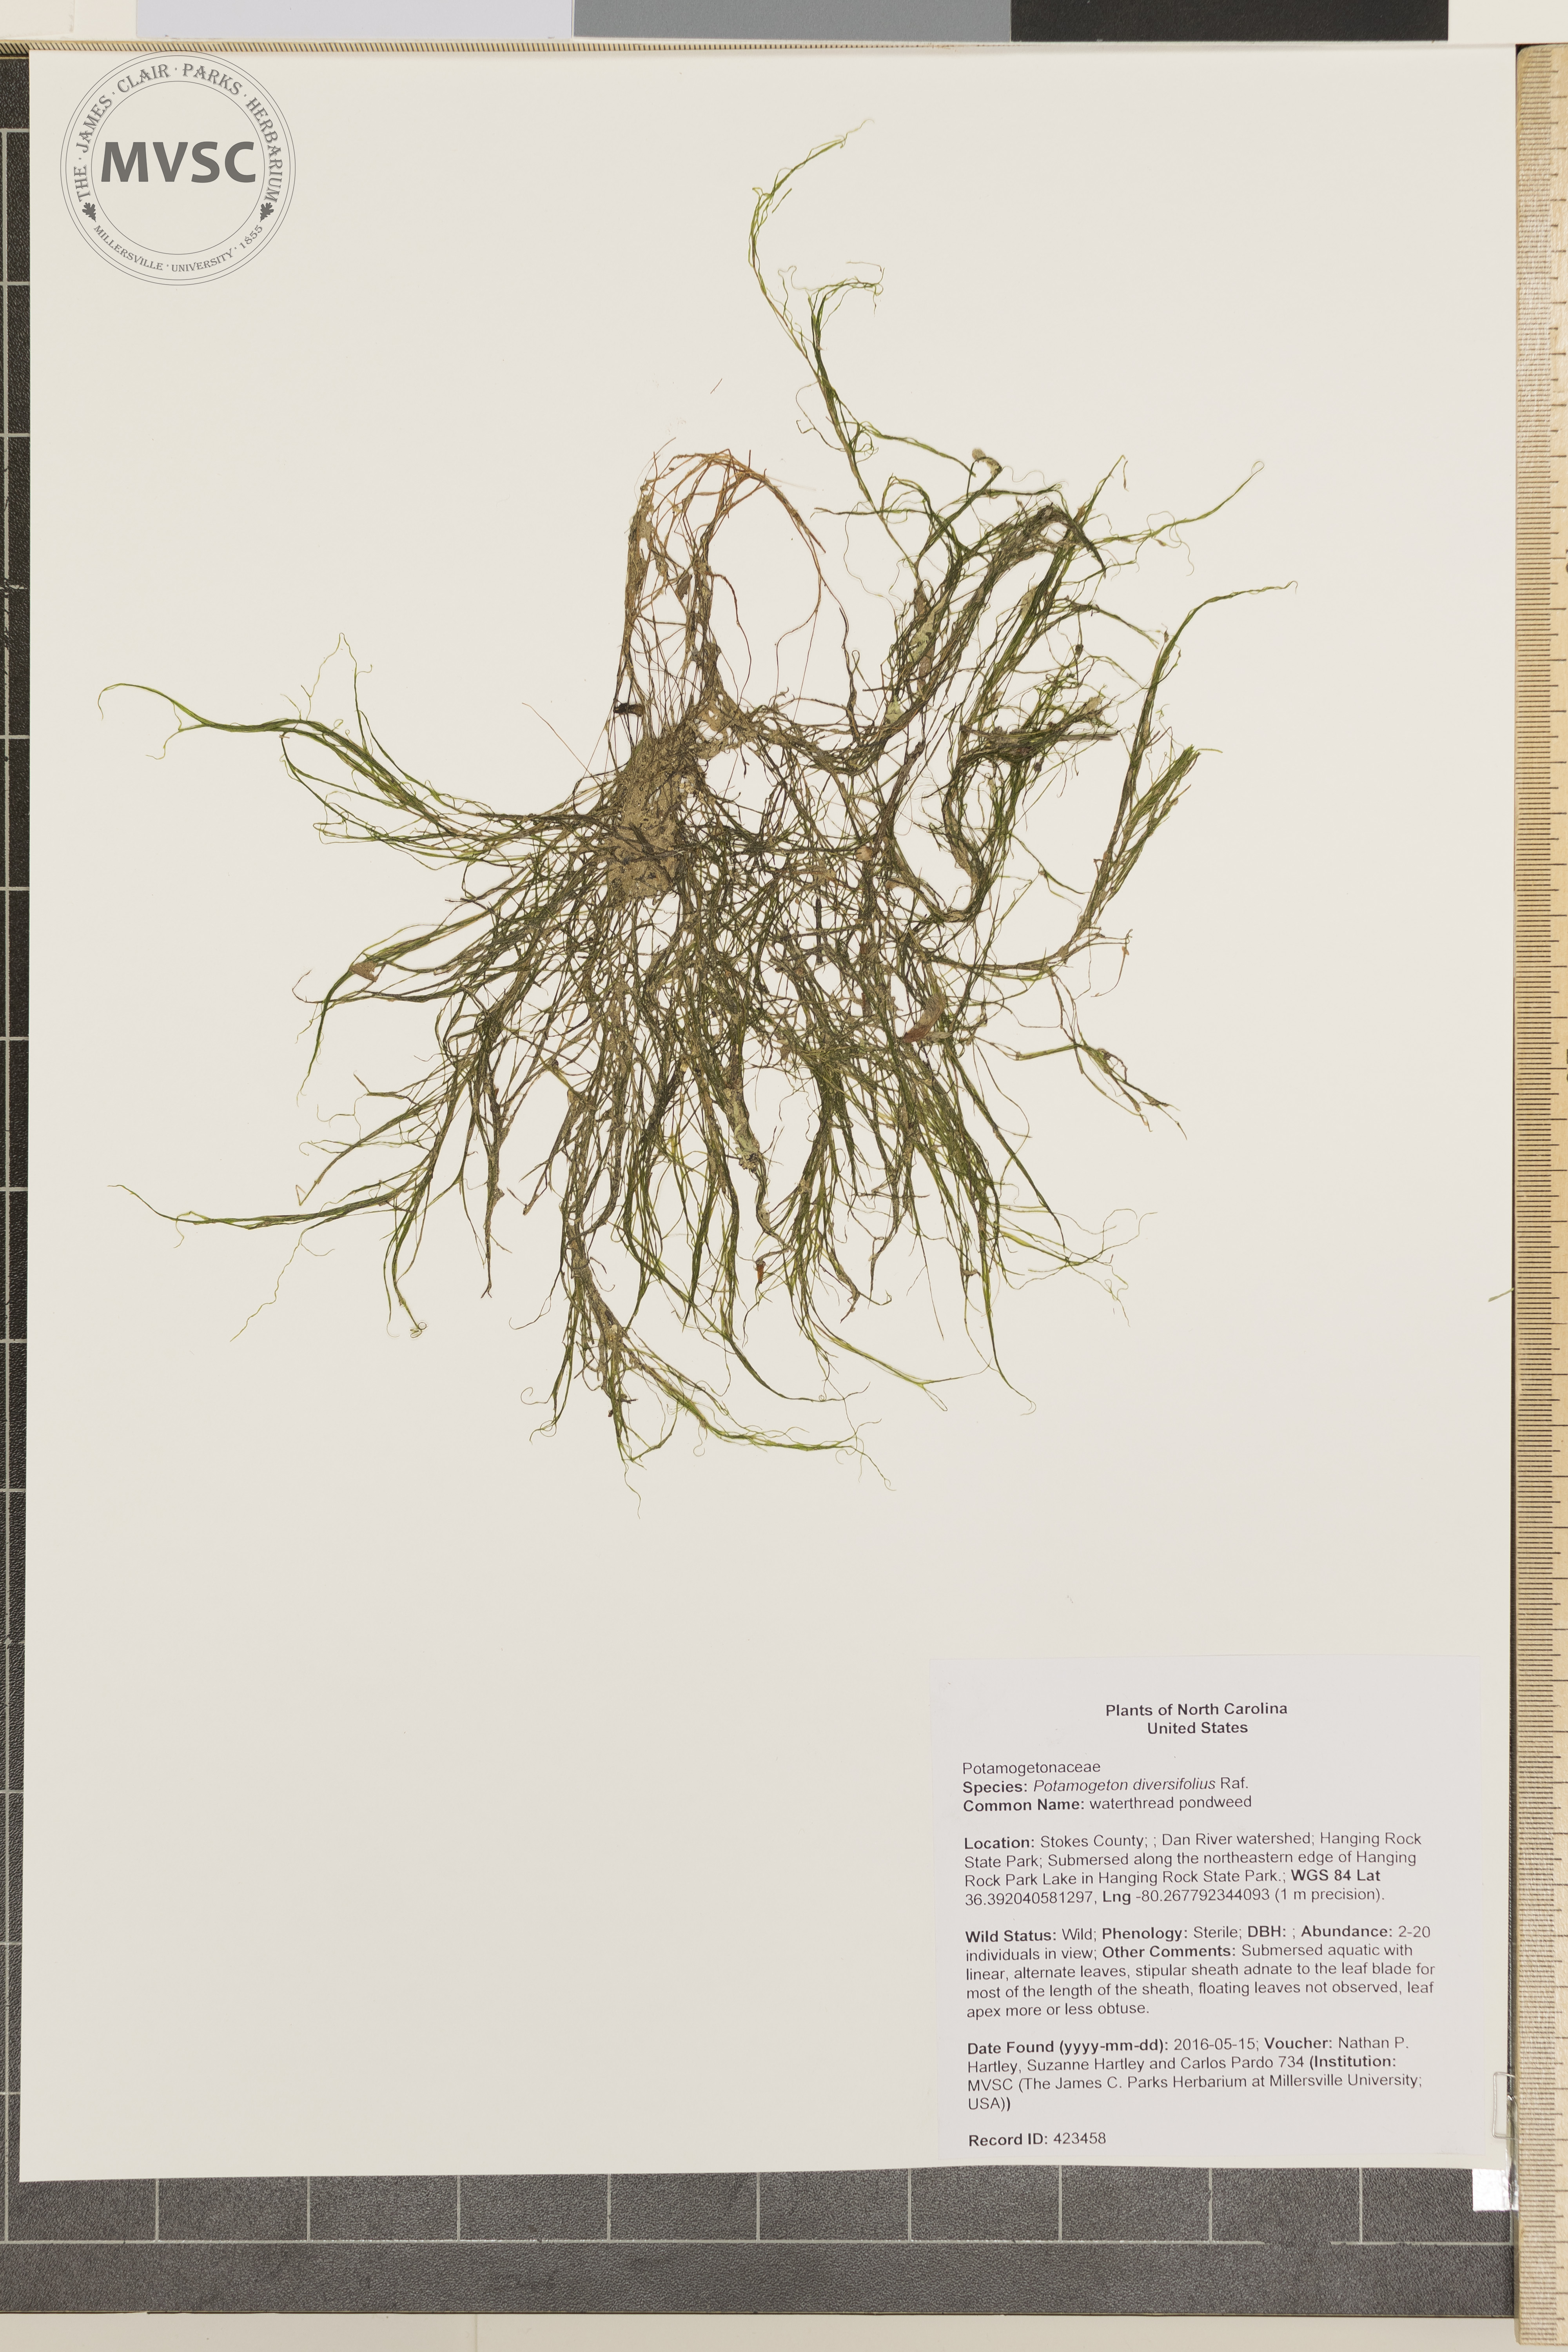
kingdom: Plantae
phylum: Tracheophyta
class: Liliopsida
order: Alismatales
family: Potamogetonaceae
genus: Potamogeton
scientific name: Potamogeton diversifolius
